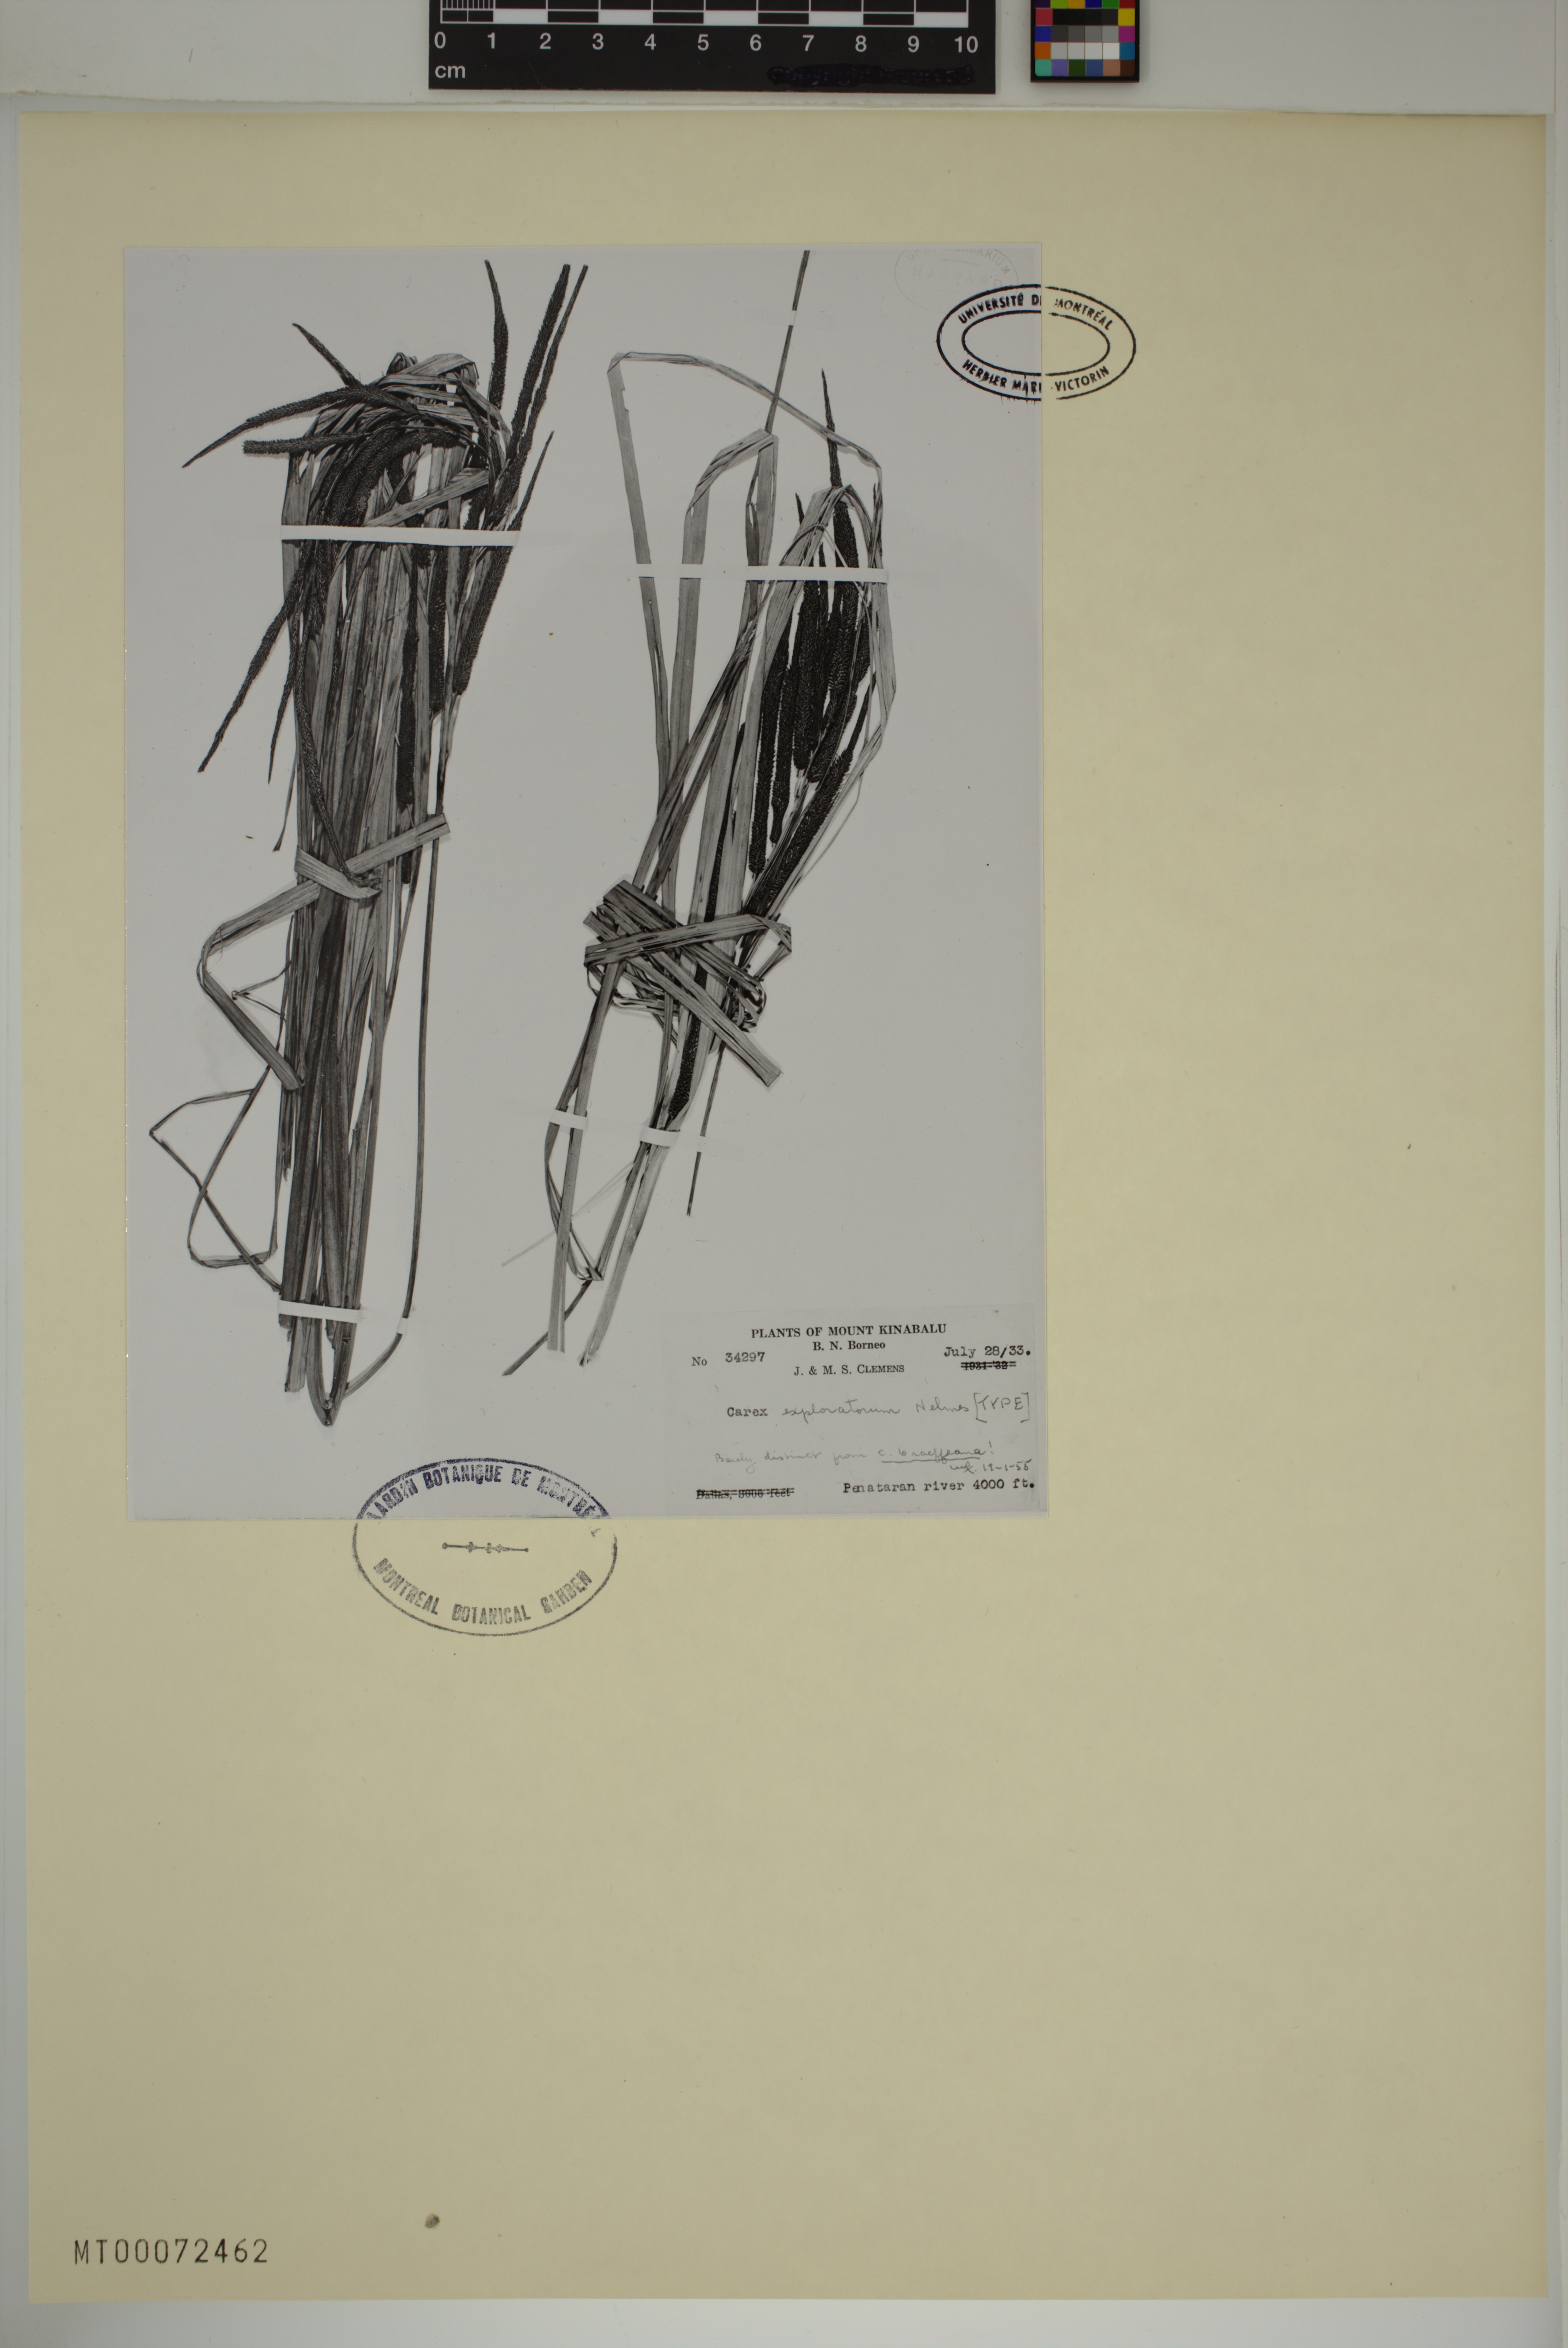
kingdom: Plantae
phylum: Tracheophyta
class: Liliopsida
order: Poales
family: Cyperaceae
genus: Carex
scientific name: Carex graeffeana
